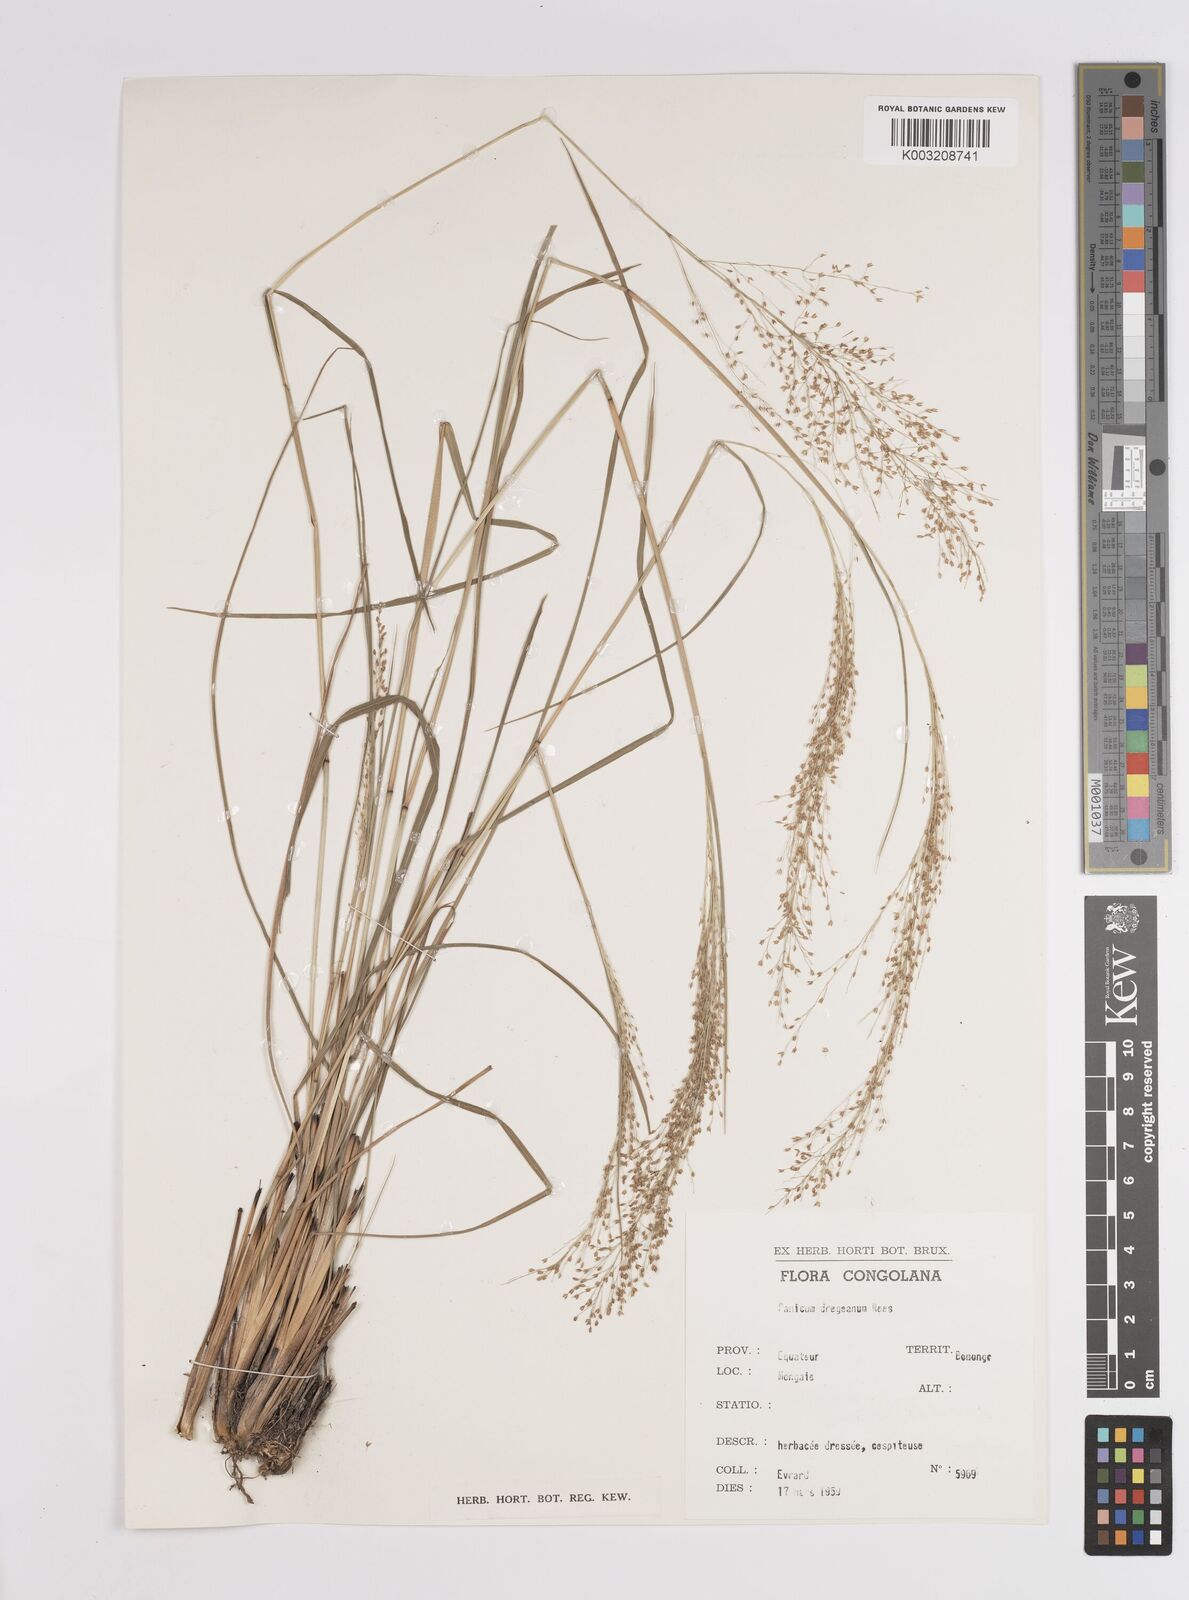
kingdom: Plantae
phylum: Tracheophyta
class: Liliopsida
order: Poales
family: Poaceae
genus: Panicum
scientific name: Panicum dregeanum
